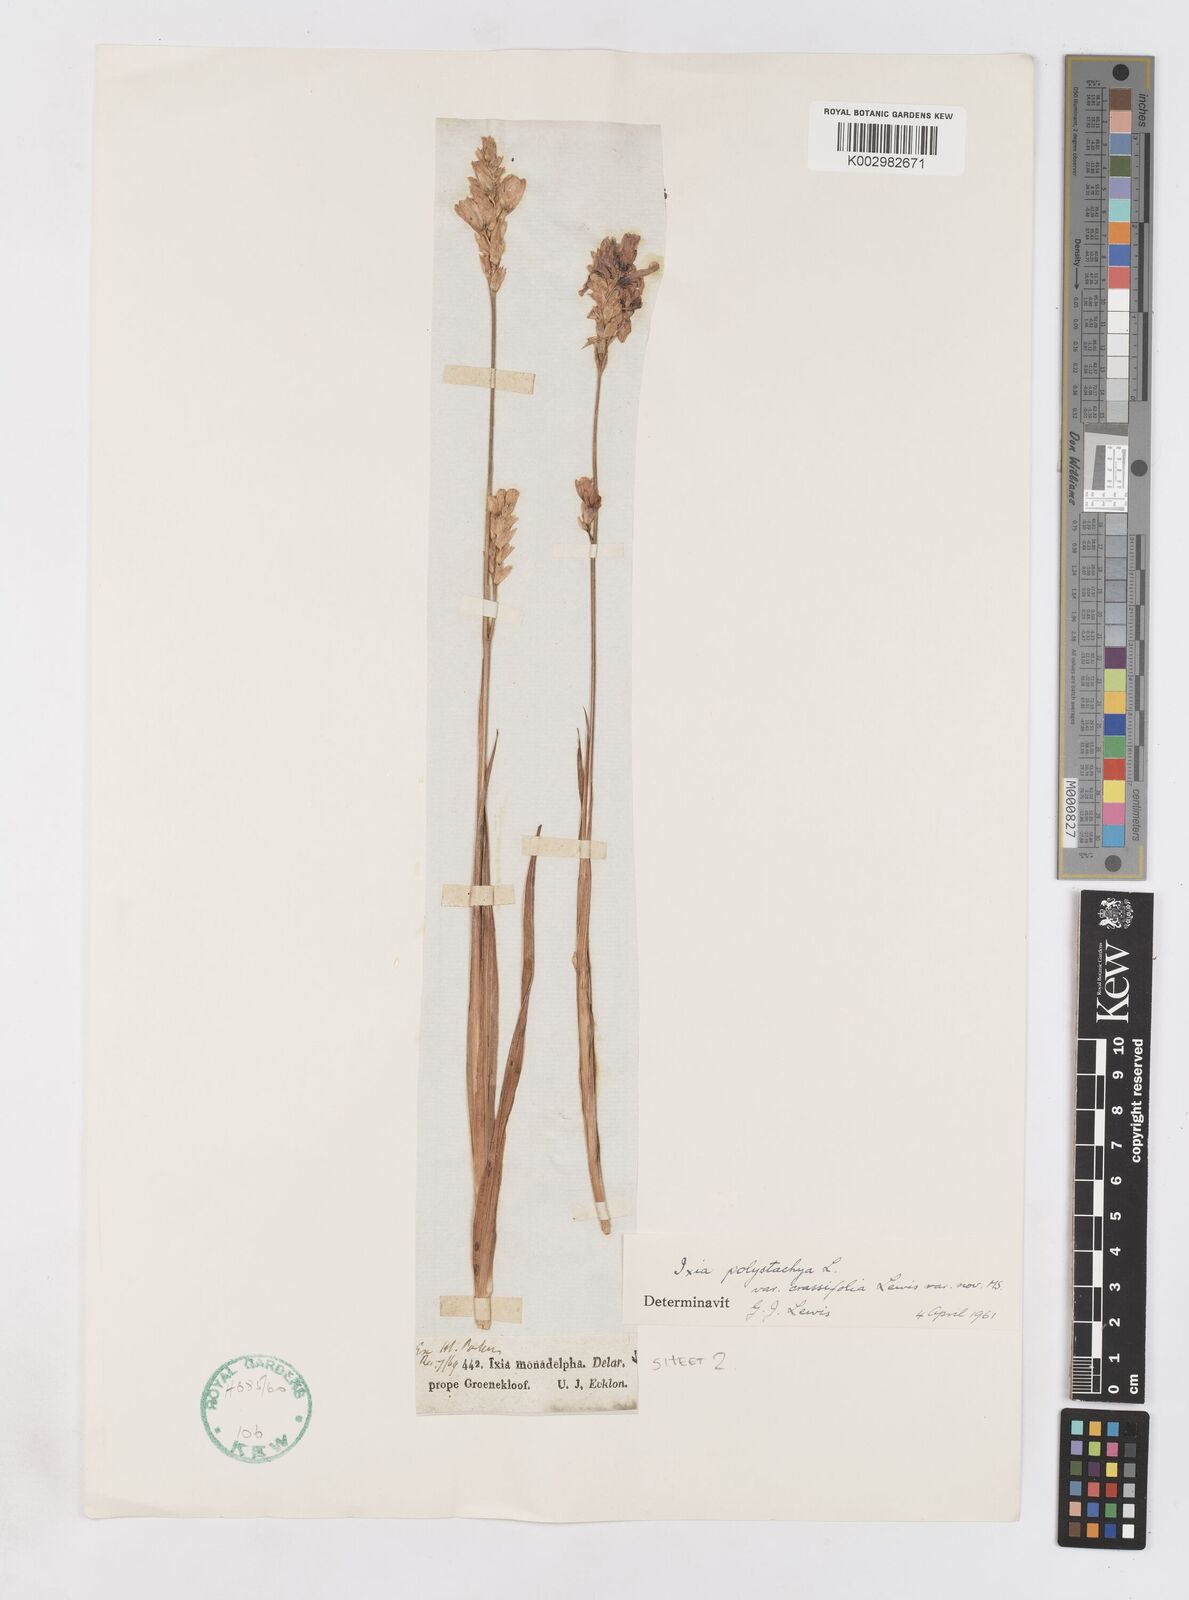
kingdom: Plantae
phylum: Tracheophyta
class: Liliopsida
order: Asparagales
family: Iridaceae
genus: Ixia
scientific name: Ixia polystachya
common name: White-and-yellow-flower cornlily
